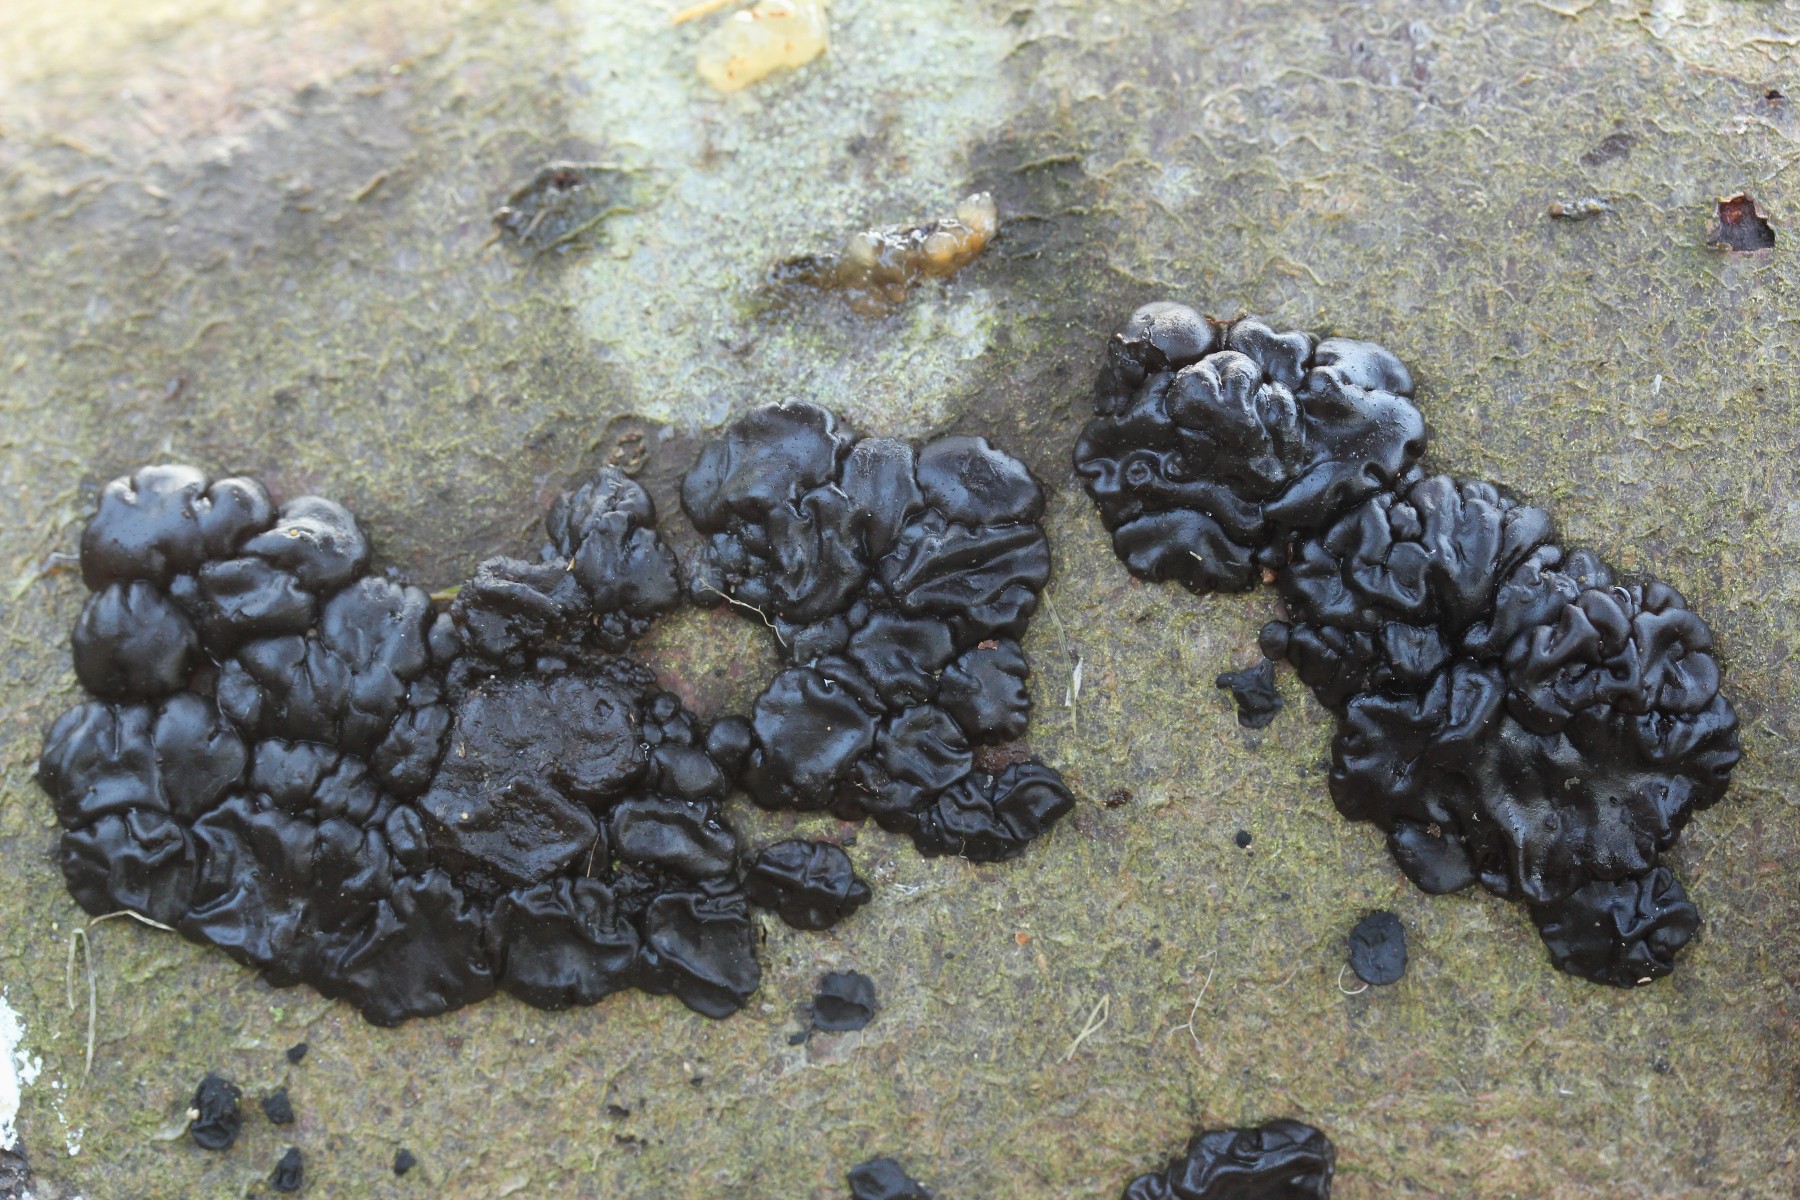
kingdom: Fungi
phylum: Basidiomycota
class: Agaricomycetes
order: Auriculariales
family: Auriculariaceae
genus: Exidia
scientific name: Exidia nigricans
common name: almindelig bævretop
